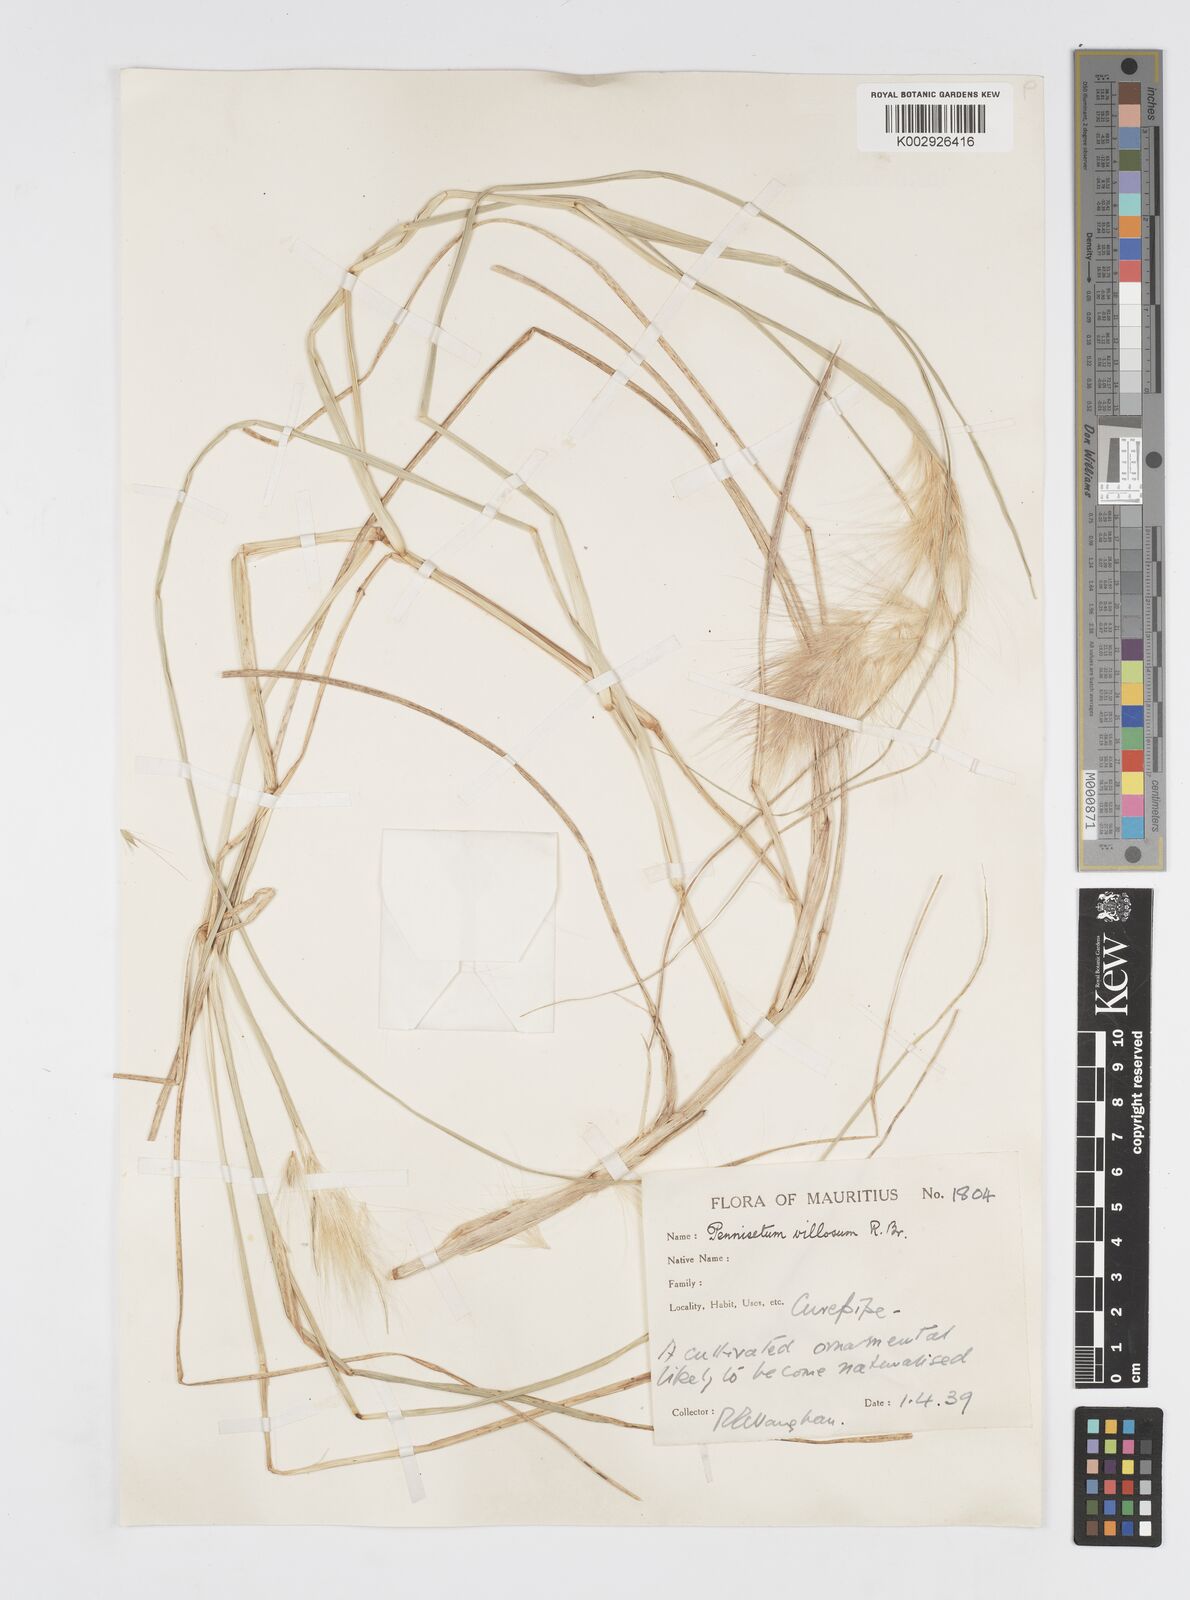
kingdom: Plantae
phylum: Tracheophyta
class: Liliopsida
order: Poales
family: Poaceae
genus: Cenchrus
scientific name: Cenchrus longisetus
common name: Feathertop
